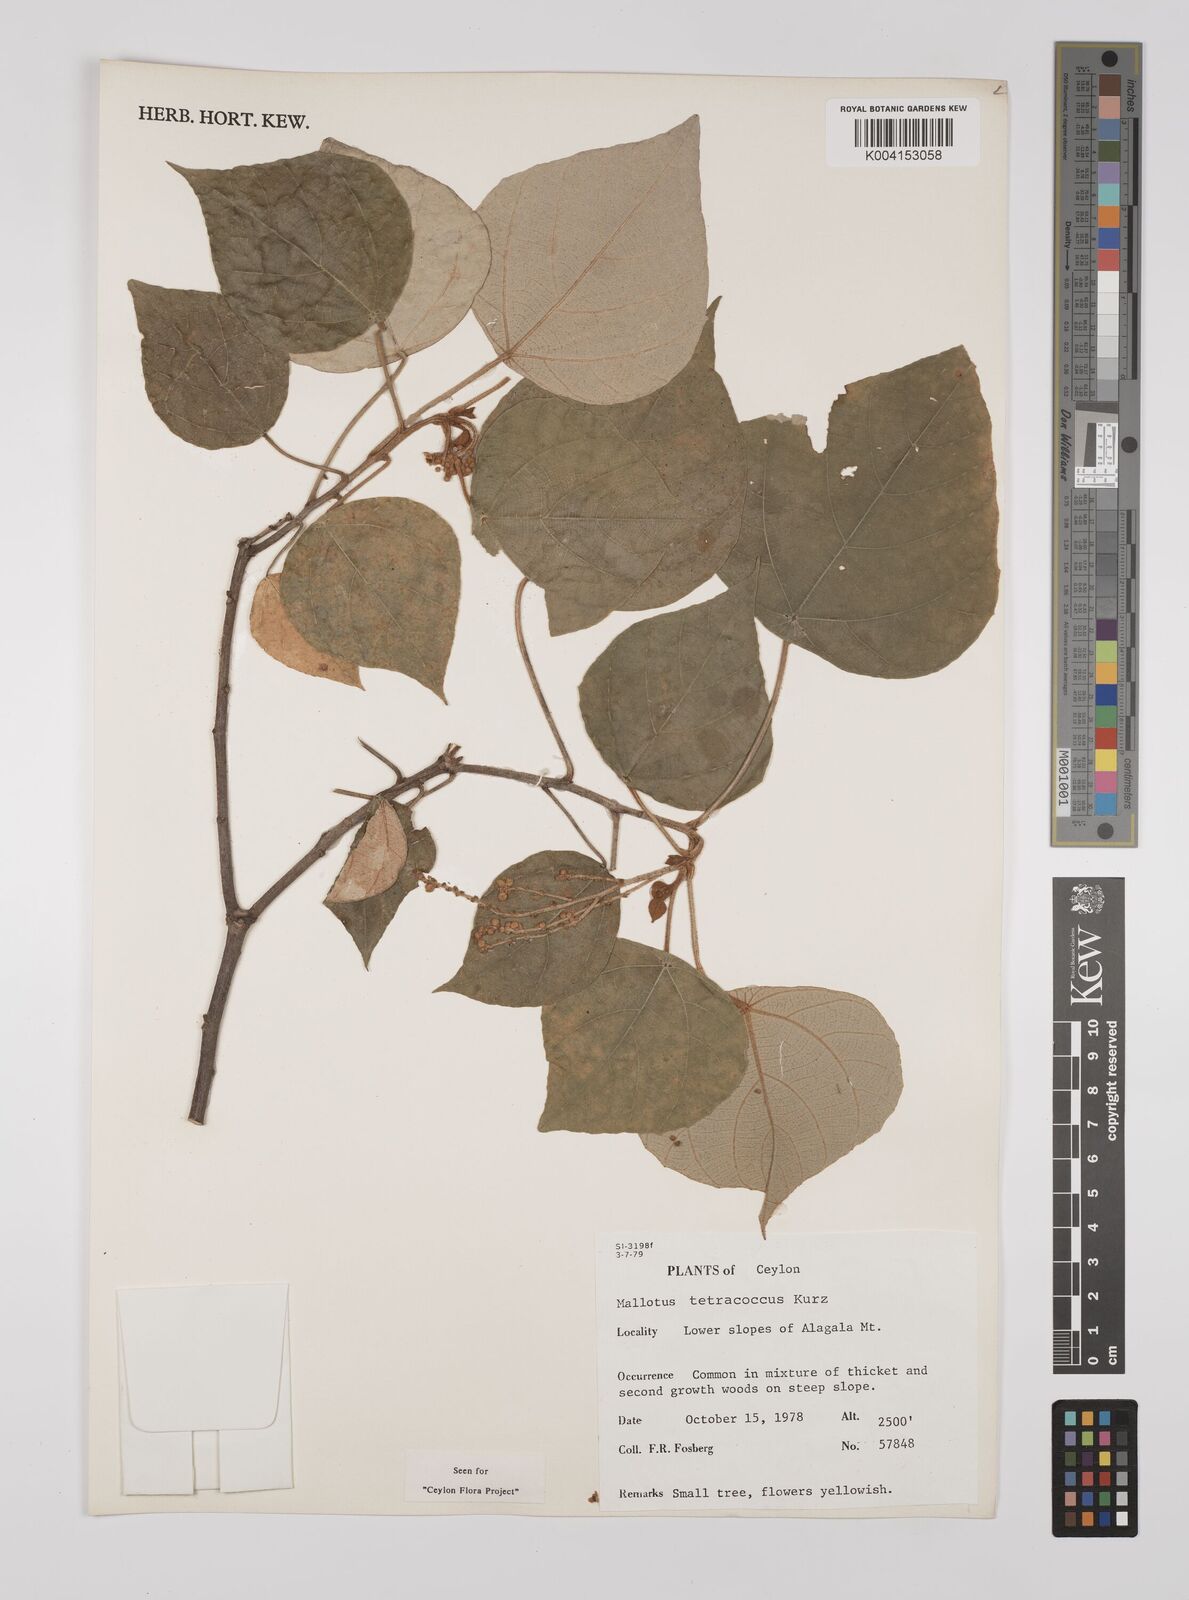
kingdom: Plantae
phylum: Tracheophyta
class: Magnoliopsida
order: Malpighiales
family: Euphorbiaceae
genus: Mallotus
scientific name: Mallotus tetracoccus
